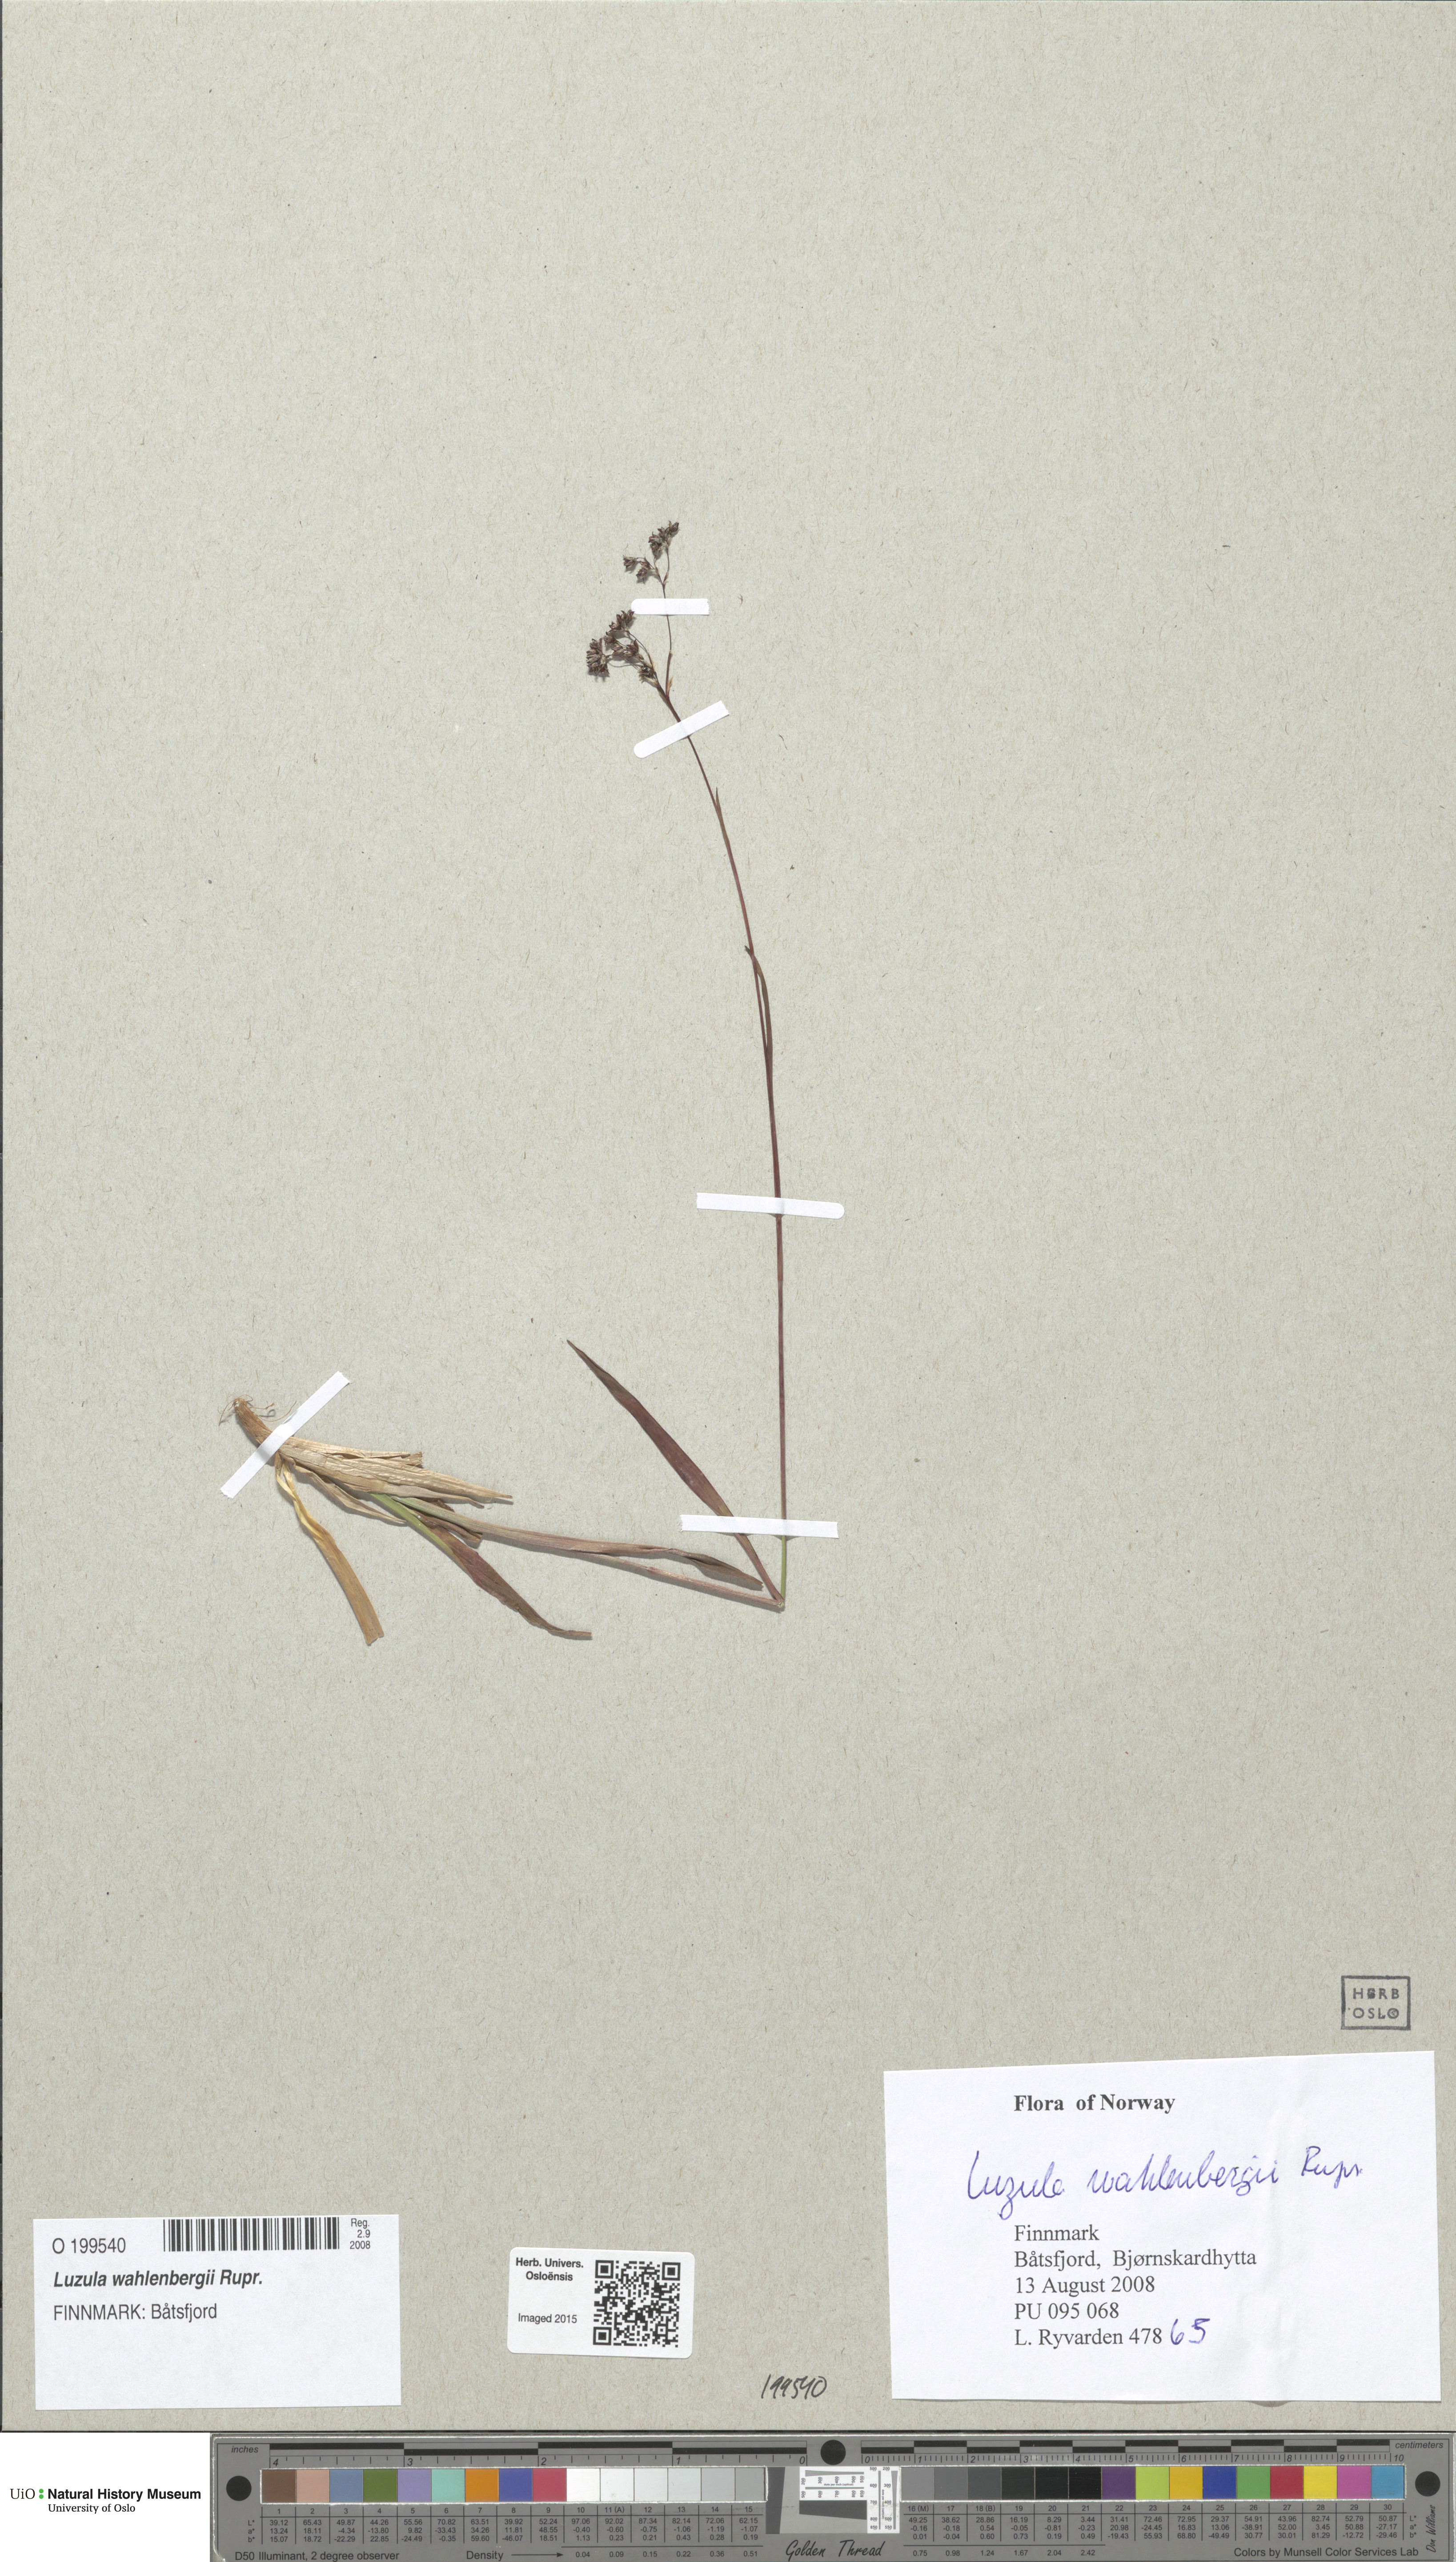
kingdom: Plantae
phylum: Tracheophyta
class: Liliopsida
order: Poales
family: Juncaceae
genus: Luzula
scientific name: Luzula wahlenbergii
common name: Wahlenberg's wood-rush
